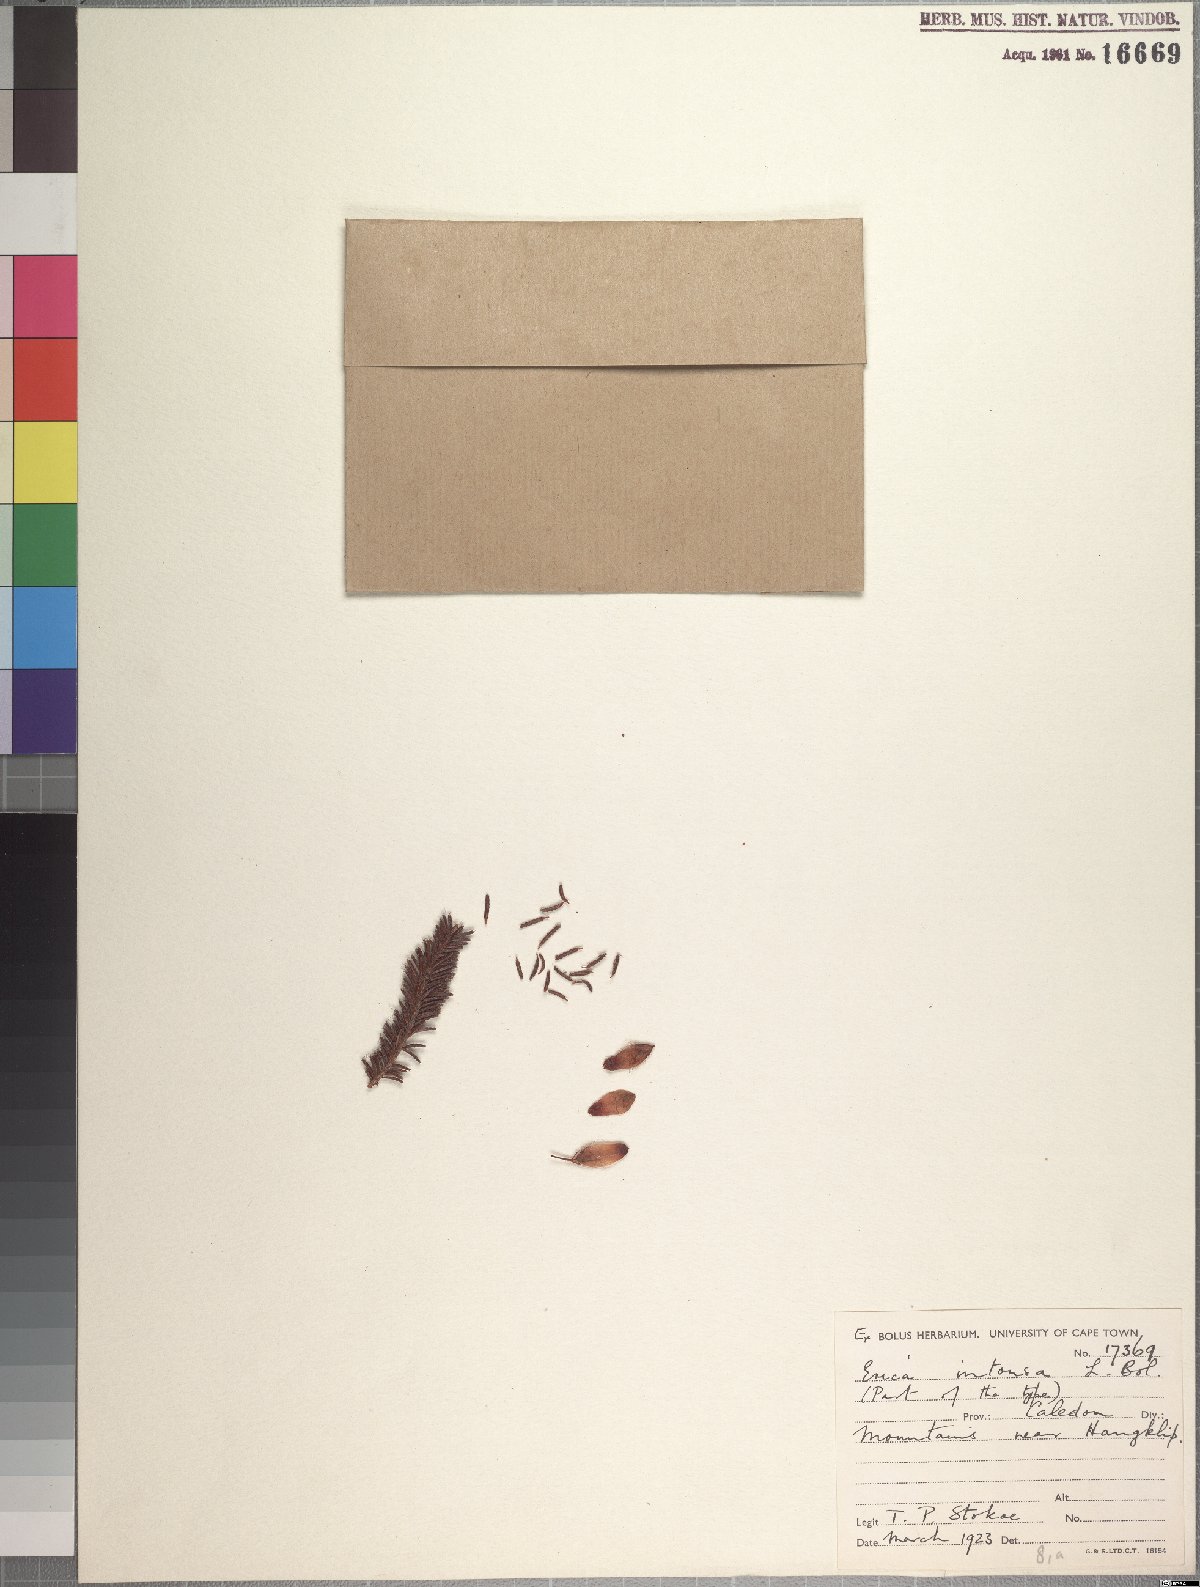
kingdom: Plantae
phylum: Tracheophyta
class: Magnoliopsida
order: Ericales
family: Ericaceae
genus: Erica
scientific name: Erica intonsa
